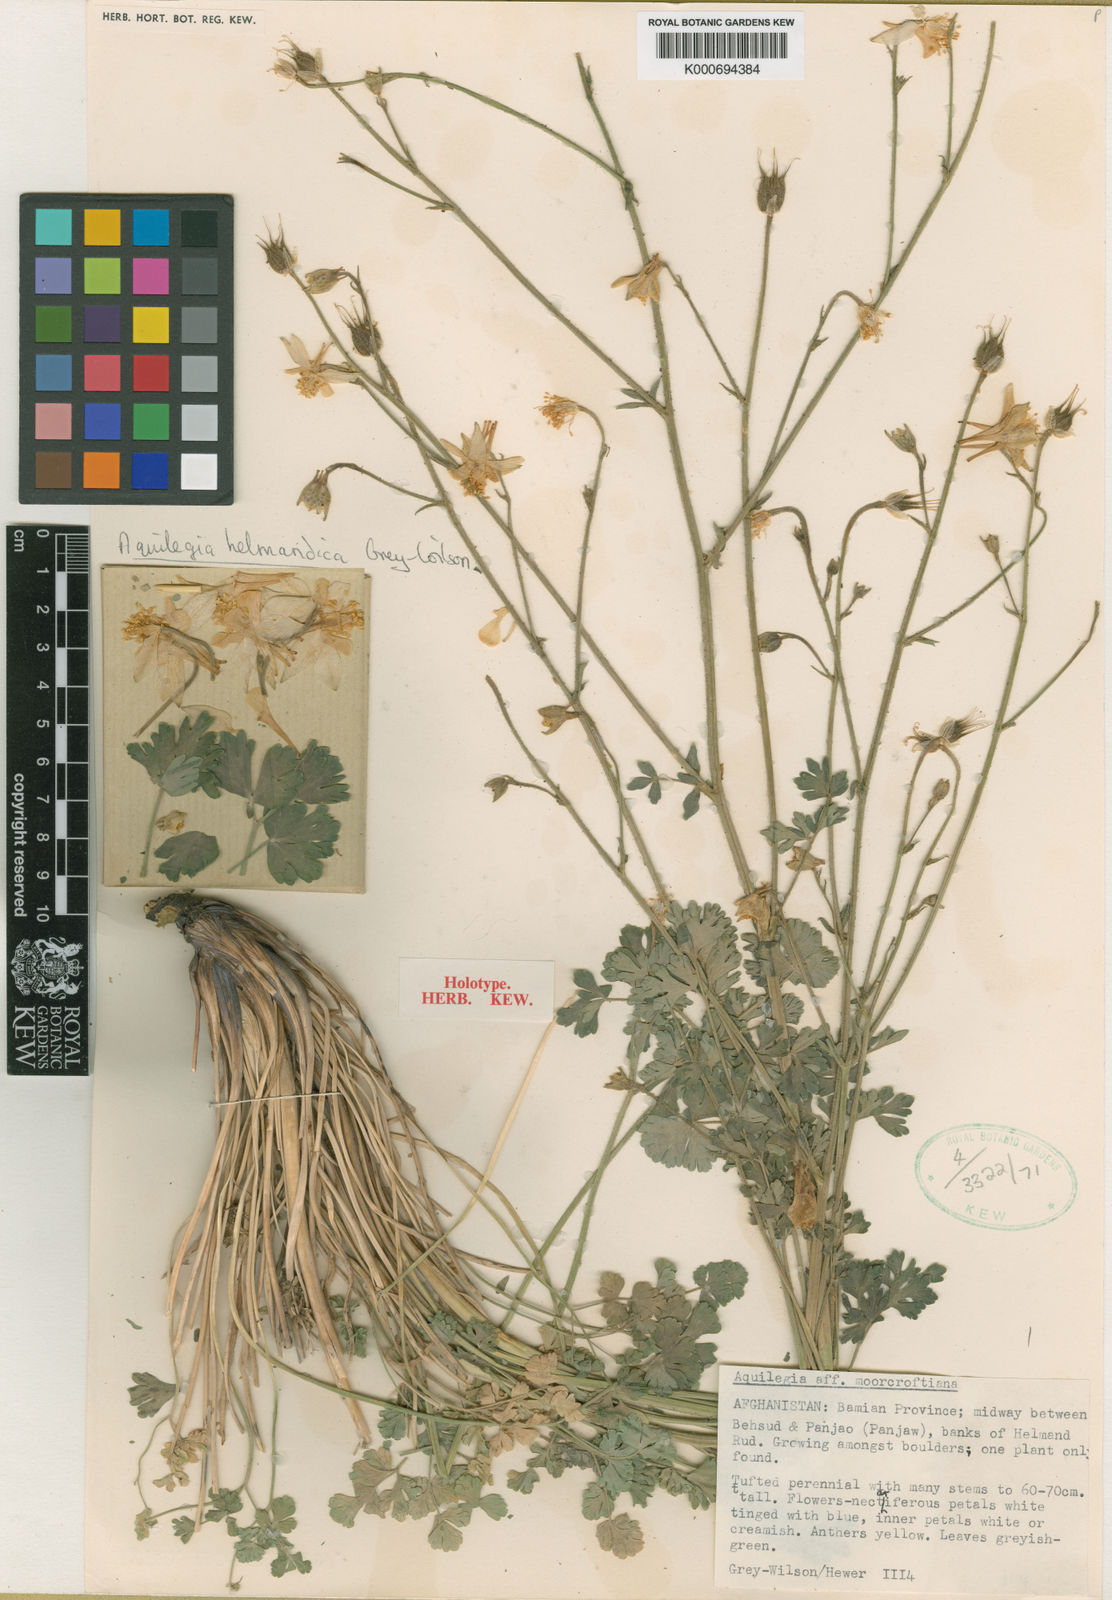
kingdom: Plantae
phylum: Tracheophyta
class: Magnoliopsida
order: Ranunculales
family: Ranunculaceae
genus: Aquilegia
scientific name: Aquilegia moorcroftiana
